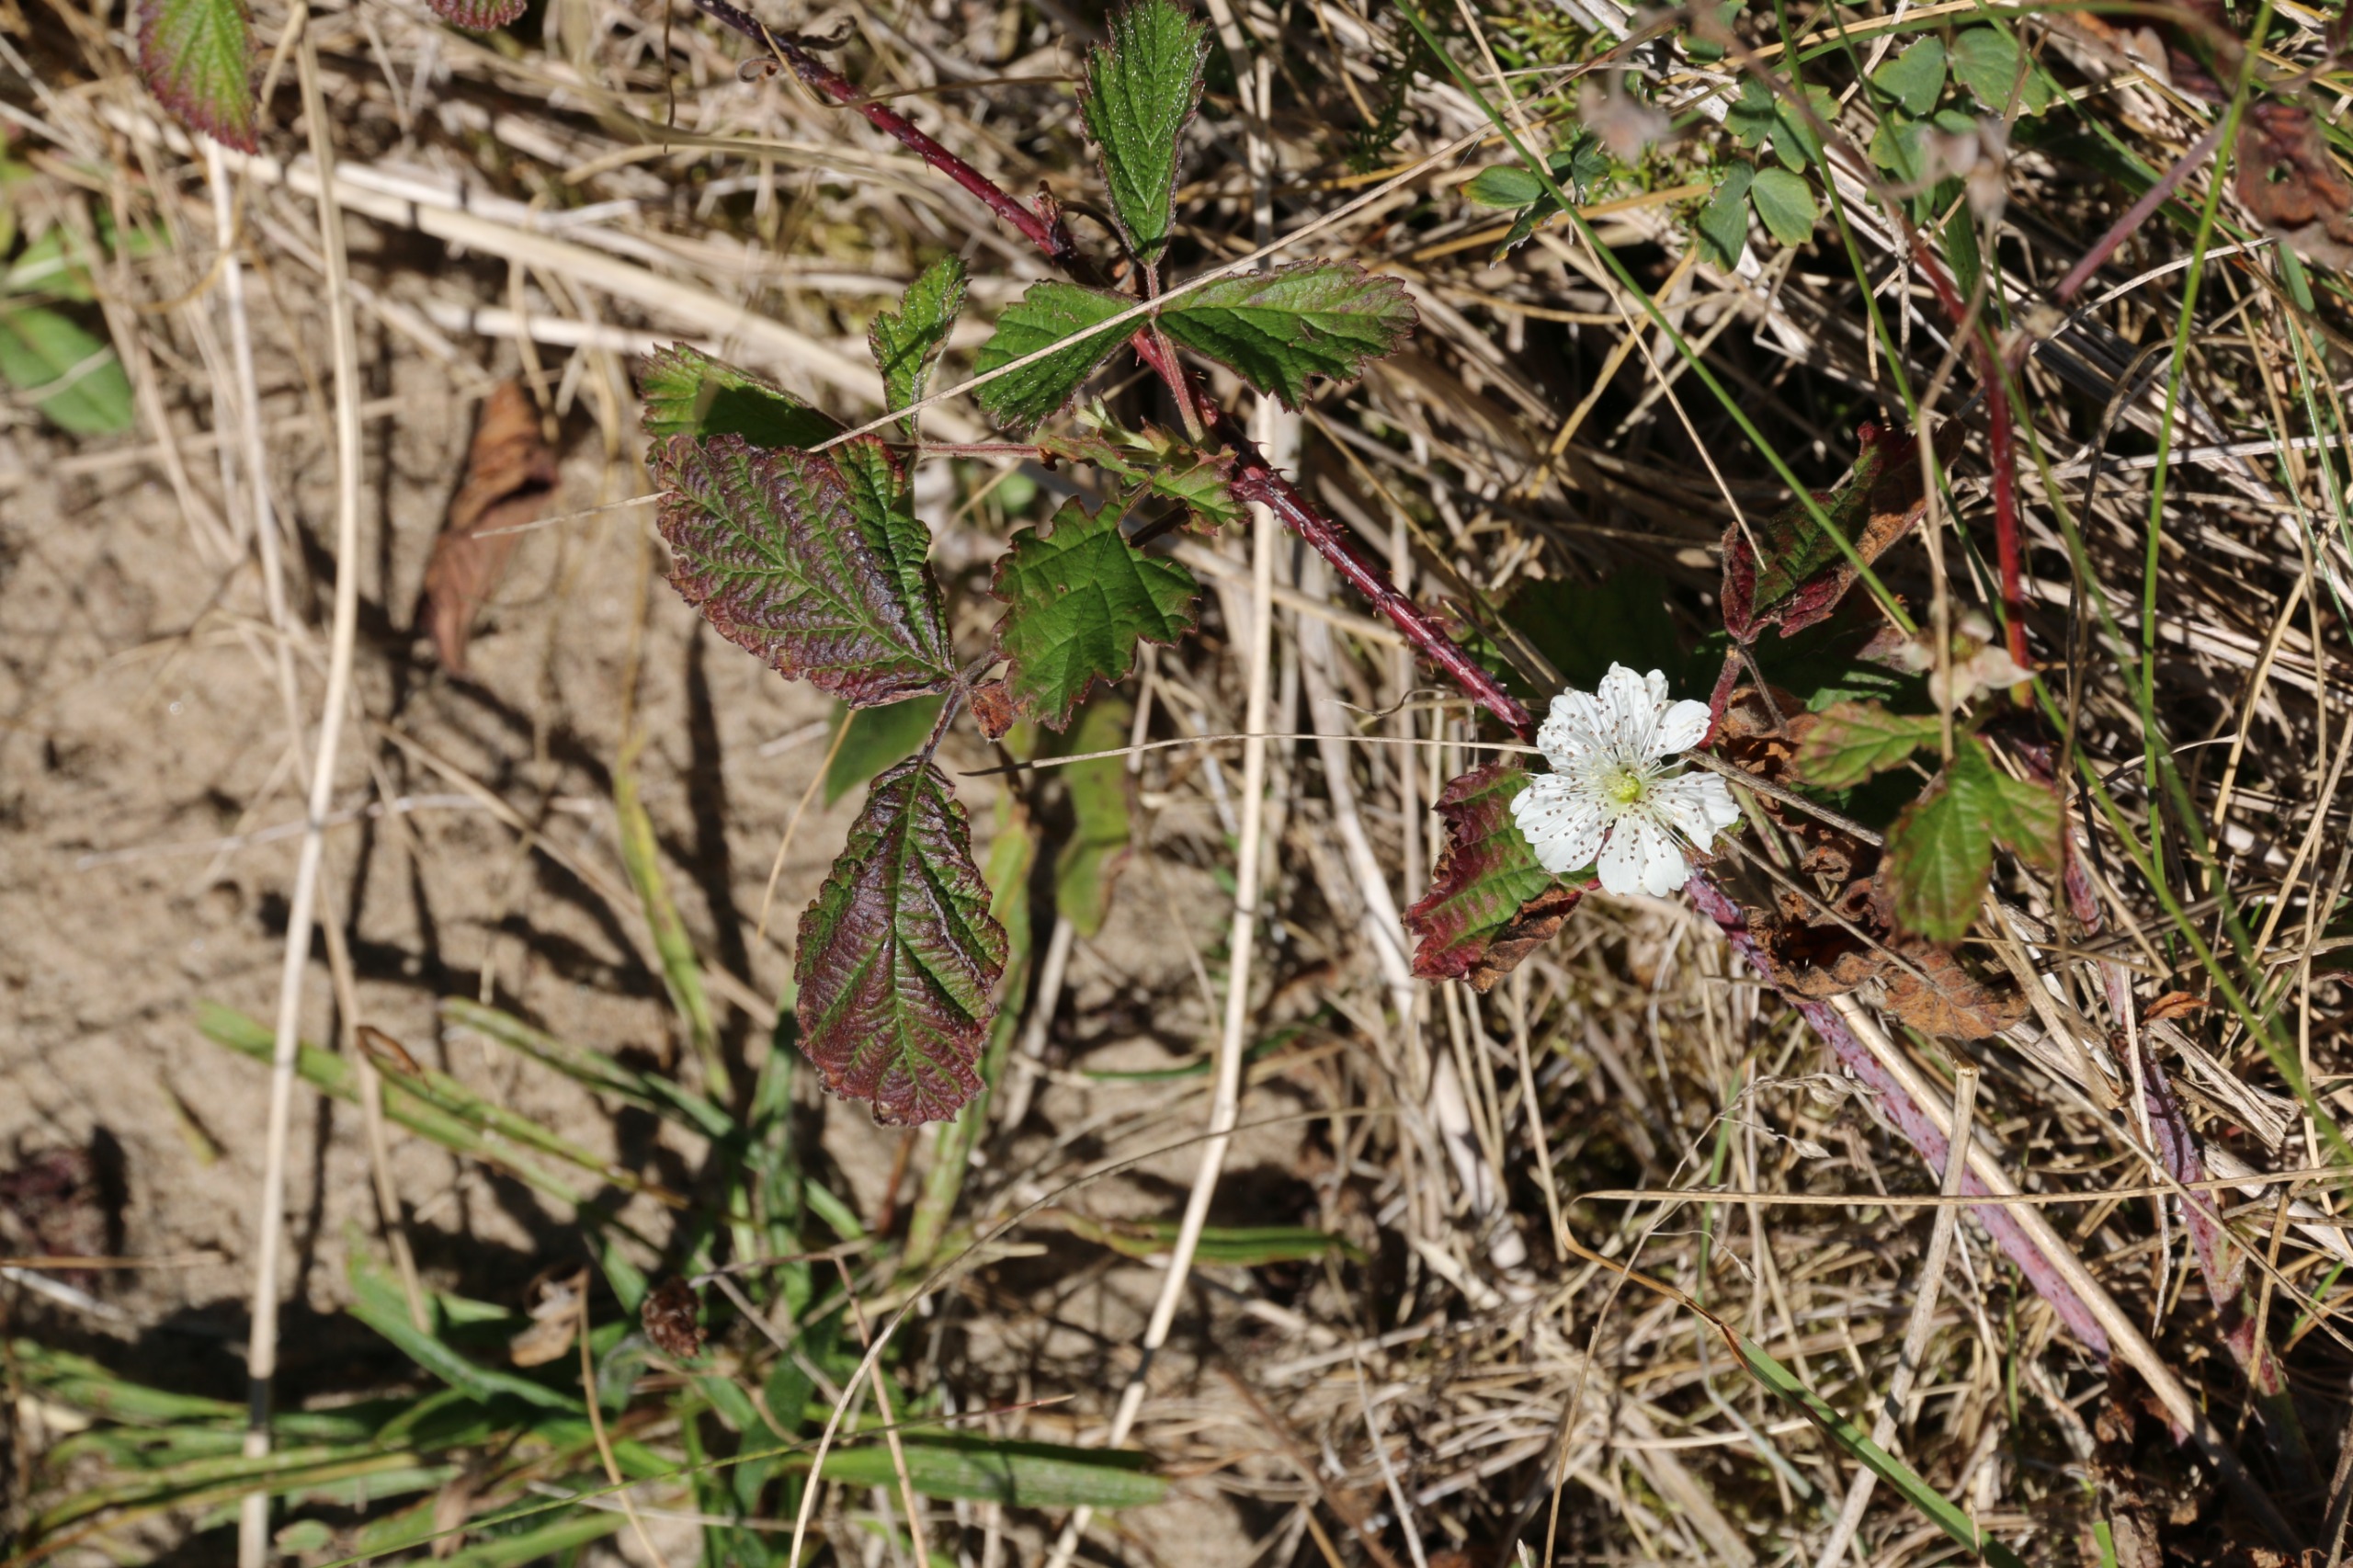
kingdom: Plantae
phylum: Tracheophyta
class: Magnoliopsida
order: Rosales
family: Rosaceae
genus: Rubus
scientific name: Rubus caesius
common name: Korbær
